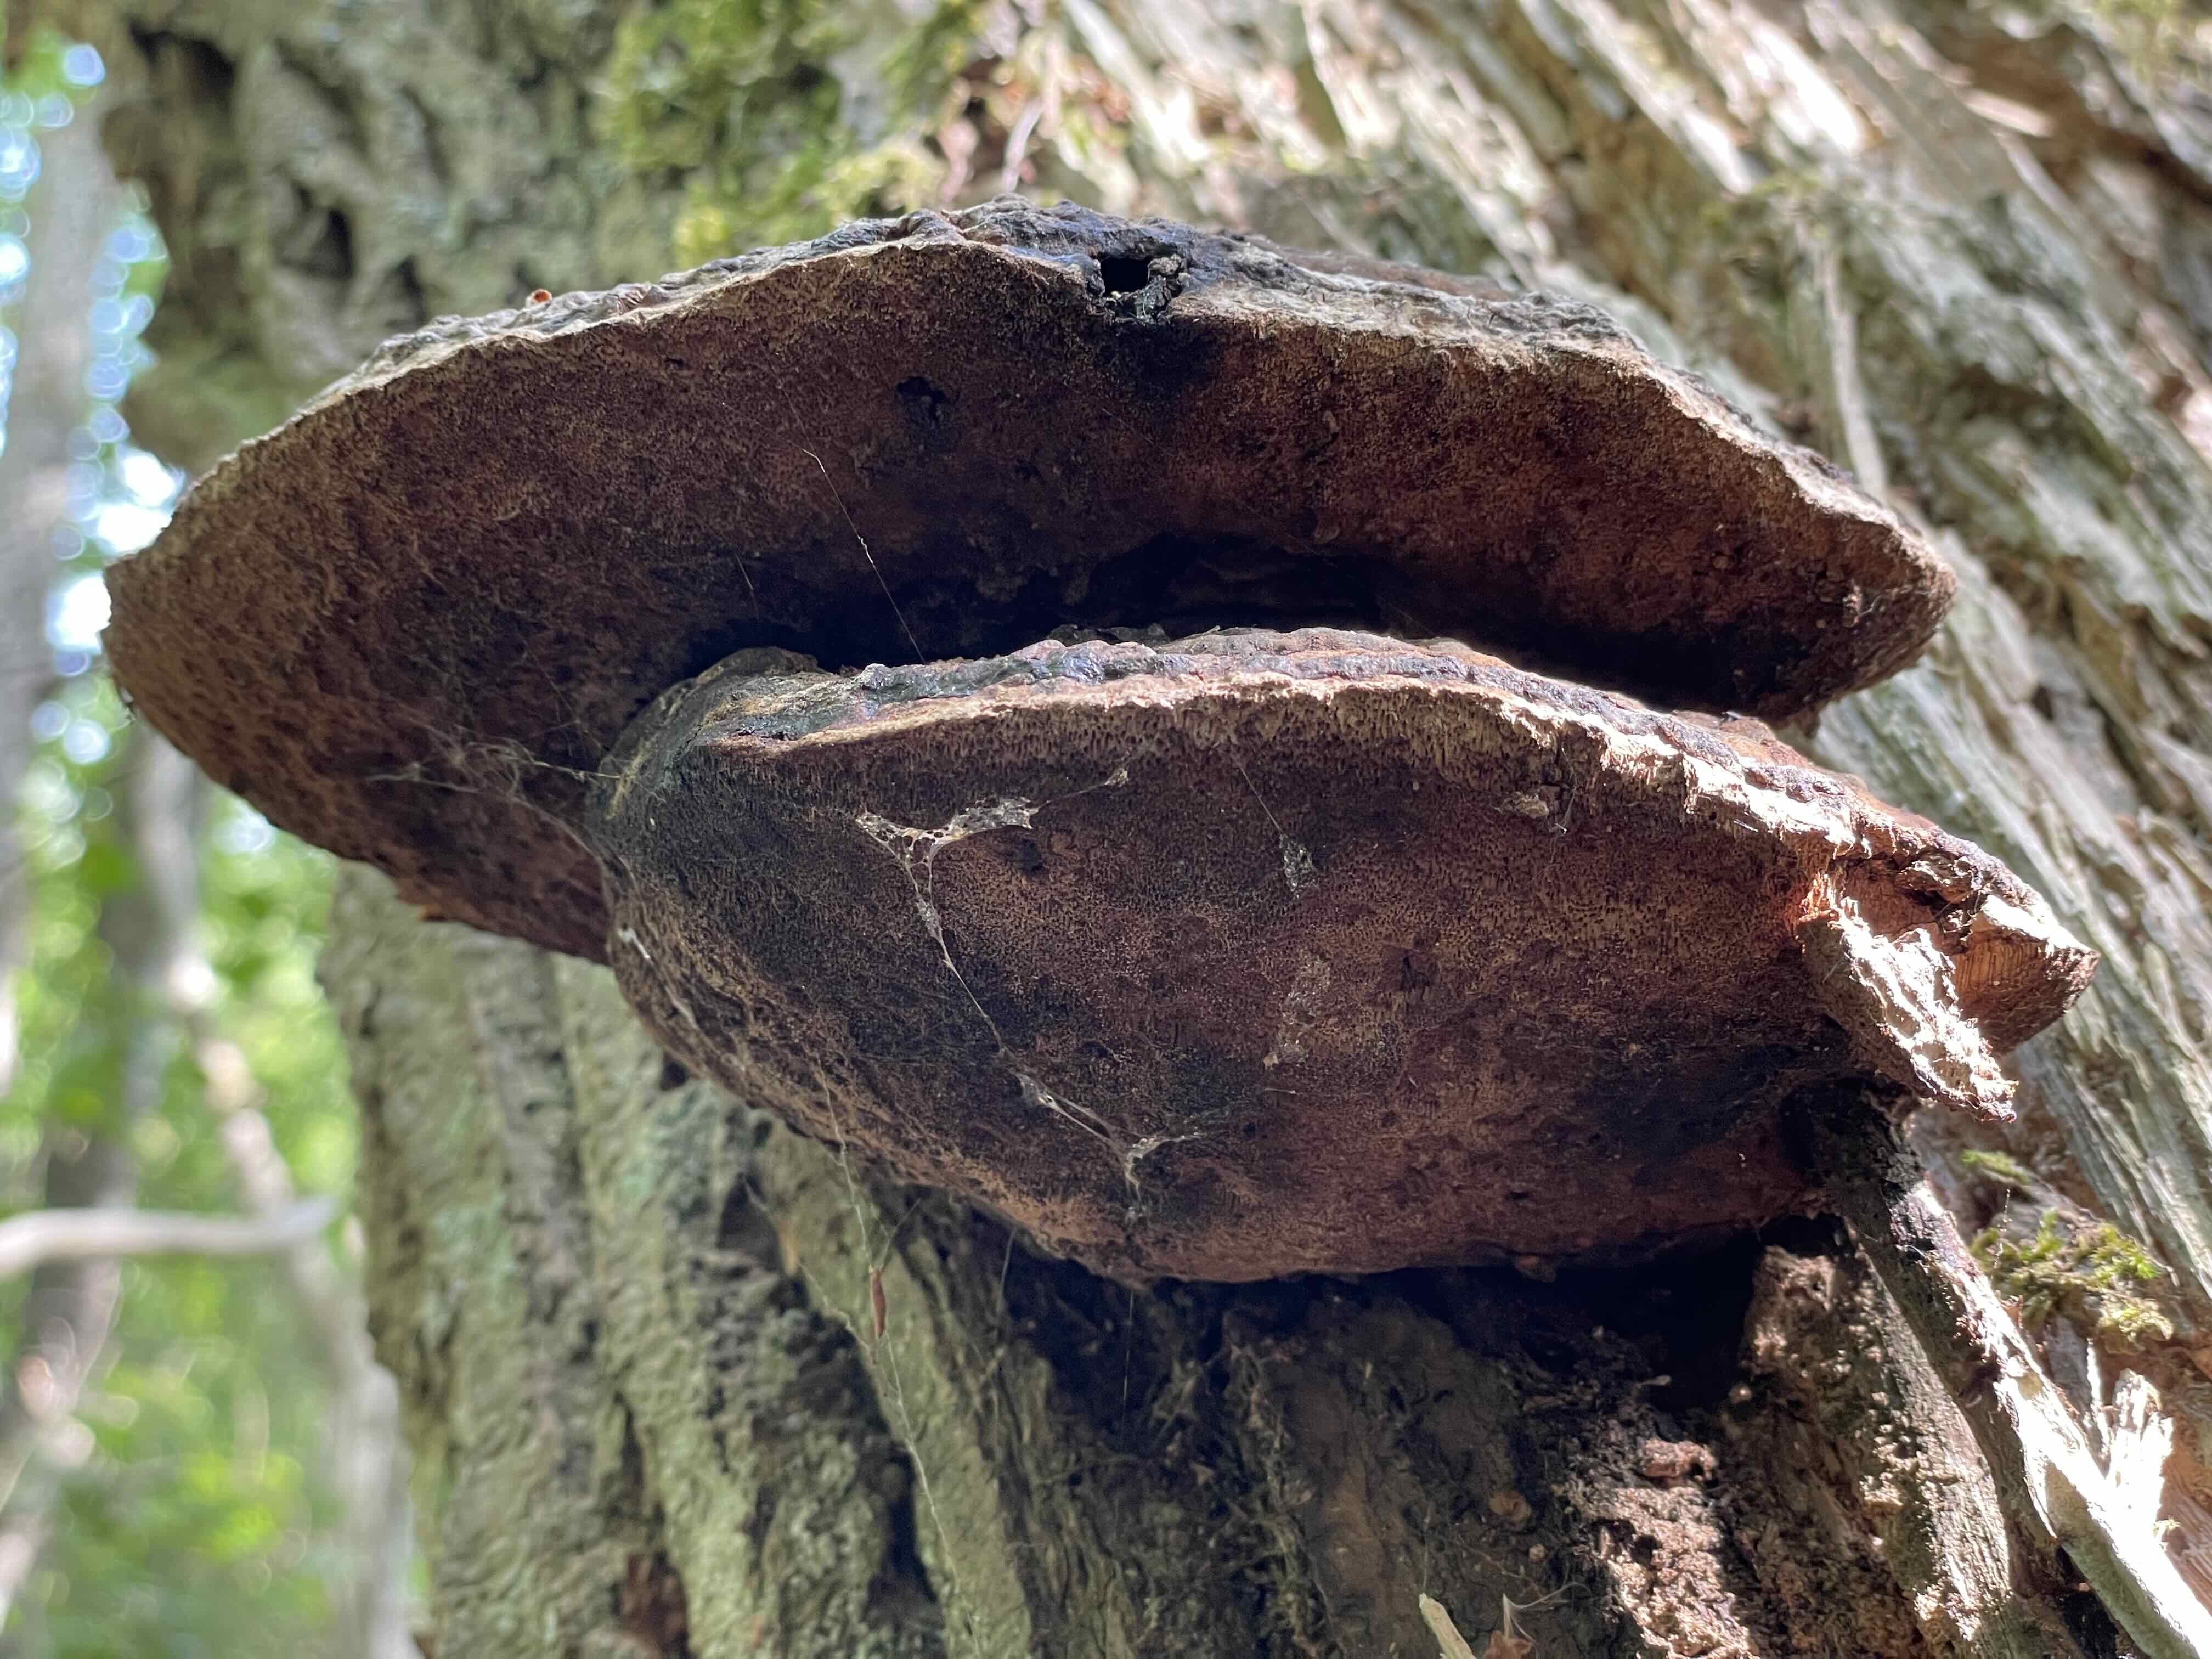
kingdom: Fungi
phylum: Basidiomycota
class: Agaricomycetes
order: Polyporales
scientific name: Polyporales
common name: poresvampordenen
